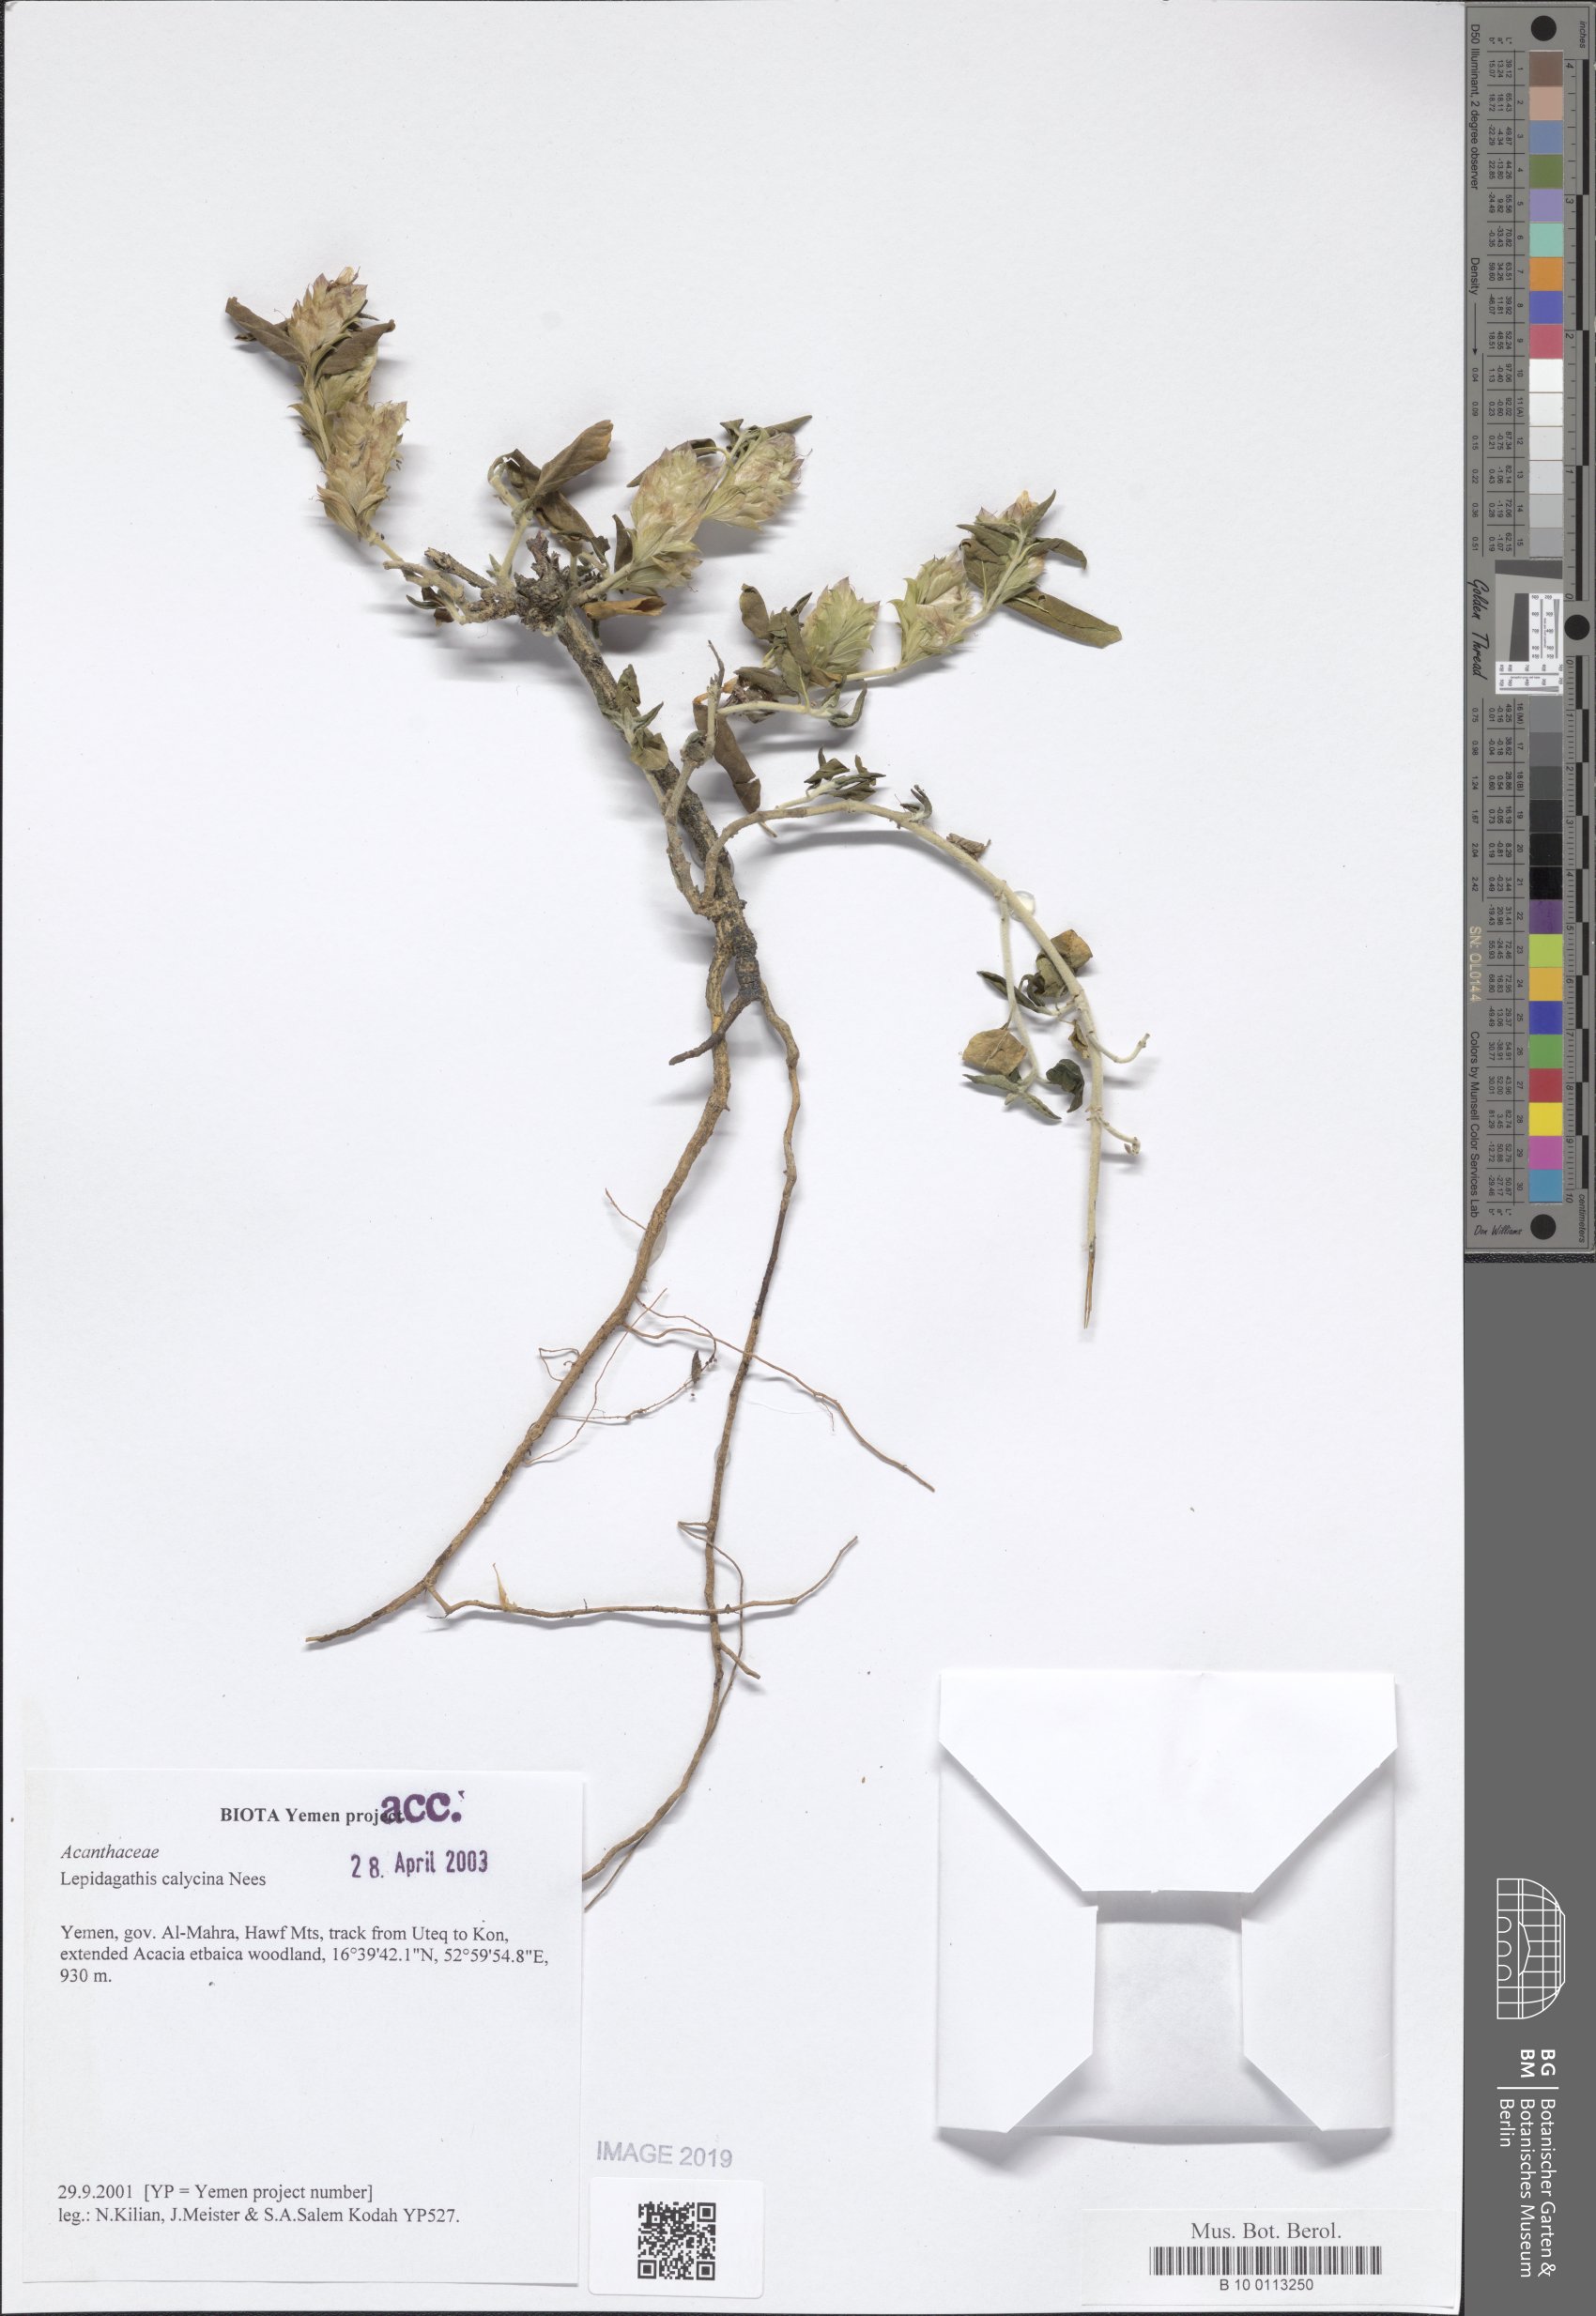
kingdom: Plantae
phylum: Tracheophyta
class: Magnoliopsida
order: Lamiales
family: Acanthaceae
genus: Lepidagathis
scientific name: Lepidagathis calycina
